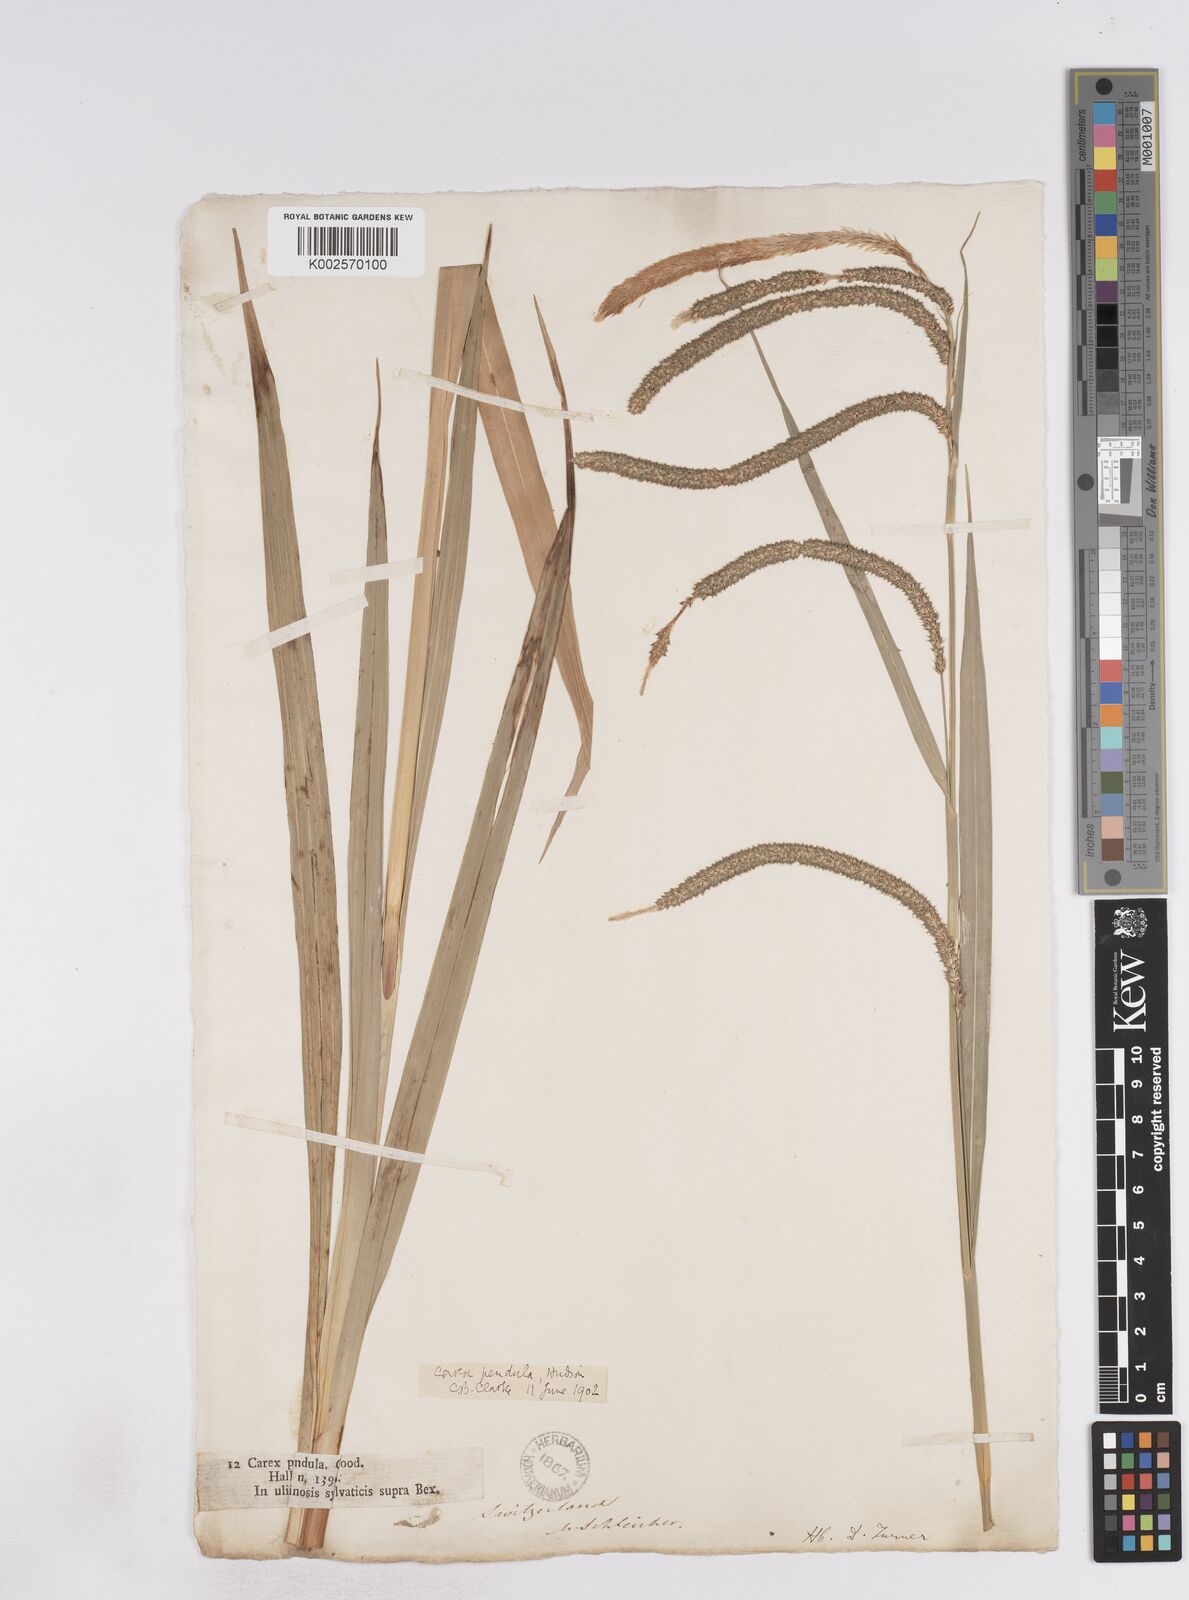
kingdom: Plantae
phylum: Tracheophyta
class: Liliopsida
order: Poales
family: Cyperaceae
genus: Carex
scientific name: Carex pendula
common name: Pendulous sedge
